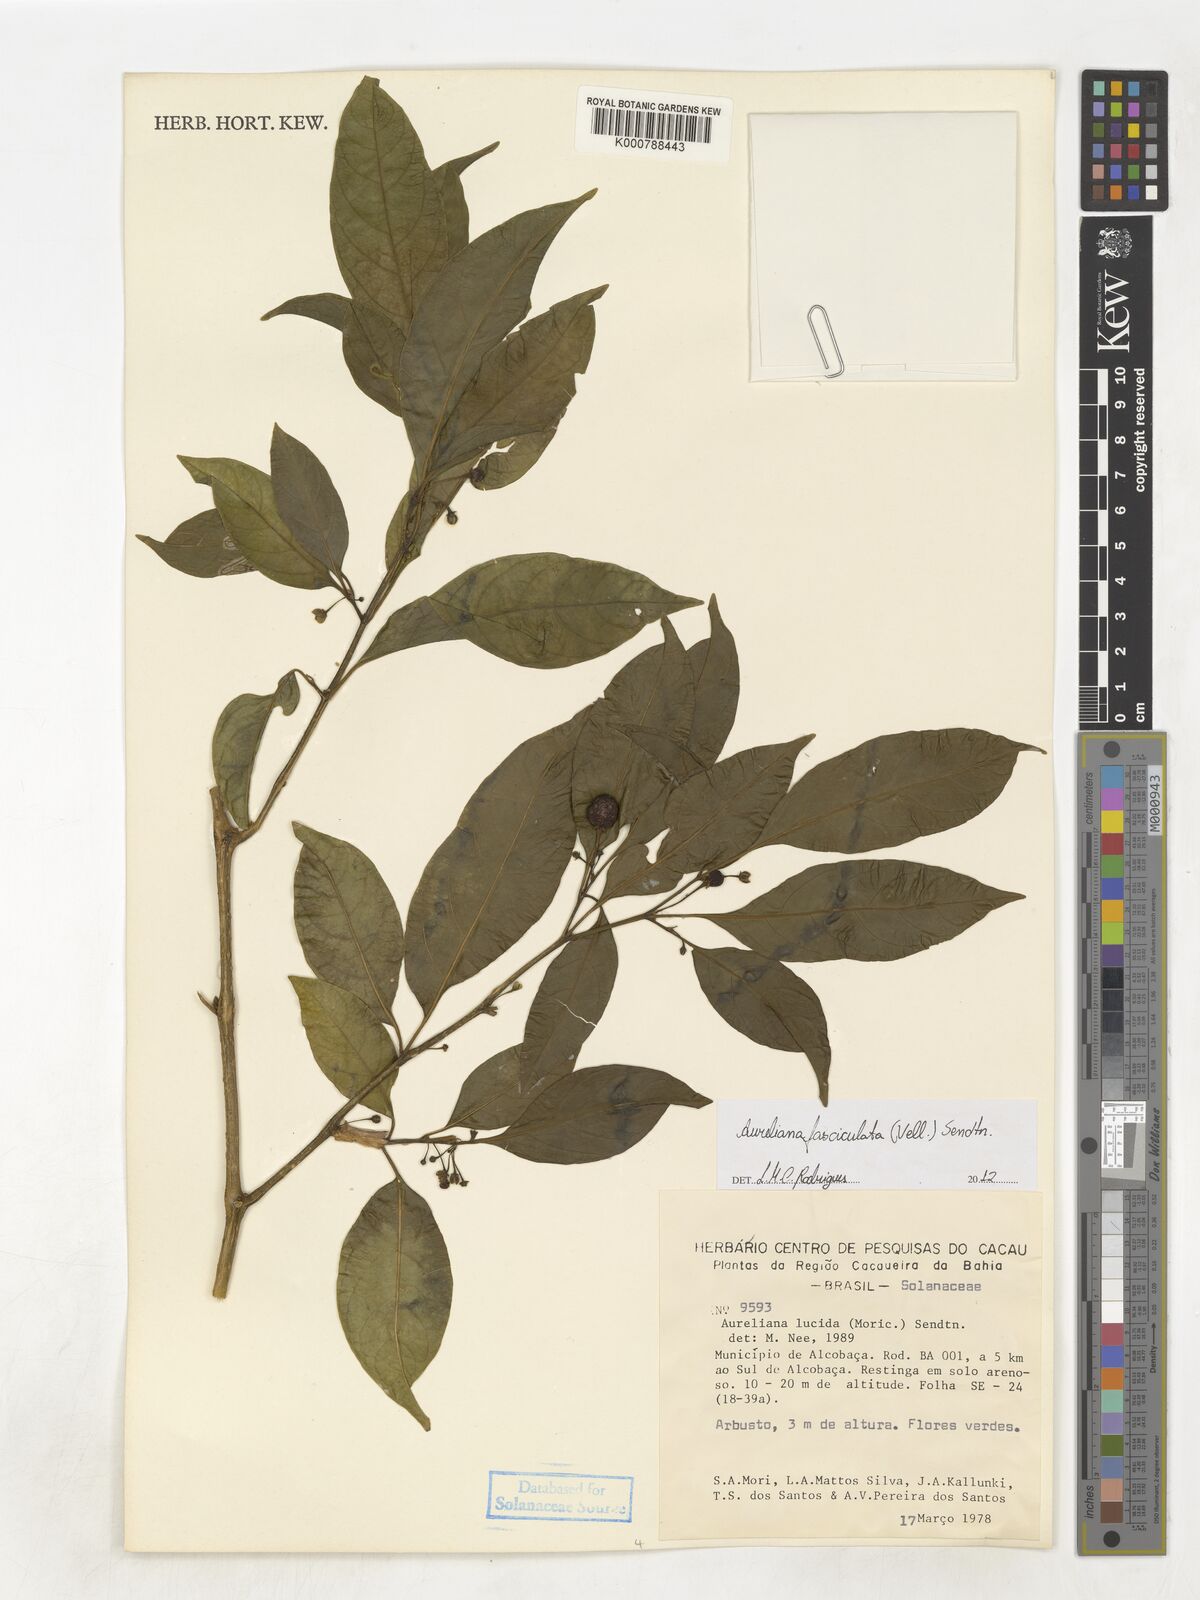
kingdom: Plantae
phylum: Tracheophyta
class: Magnoliopsida
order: Solanales
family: Solanaceae
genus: Athenaea
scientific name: Athenaea fasciculata
